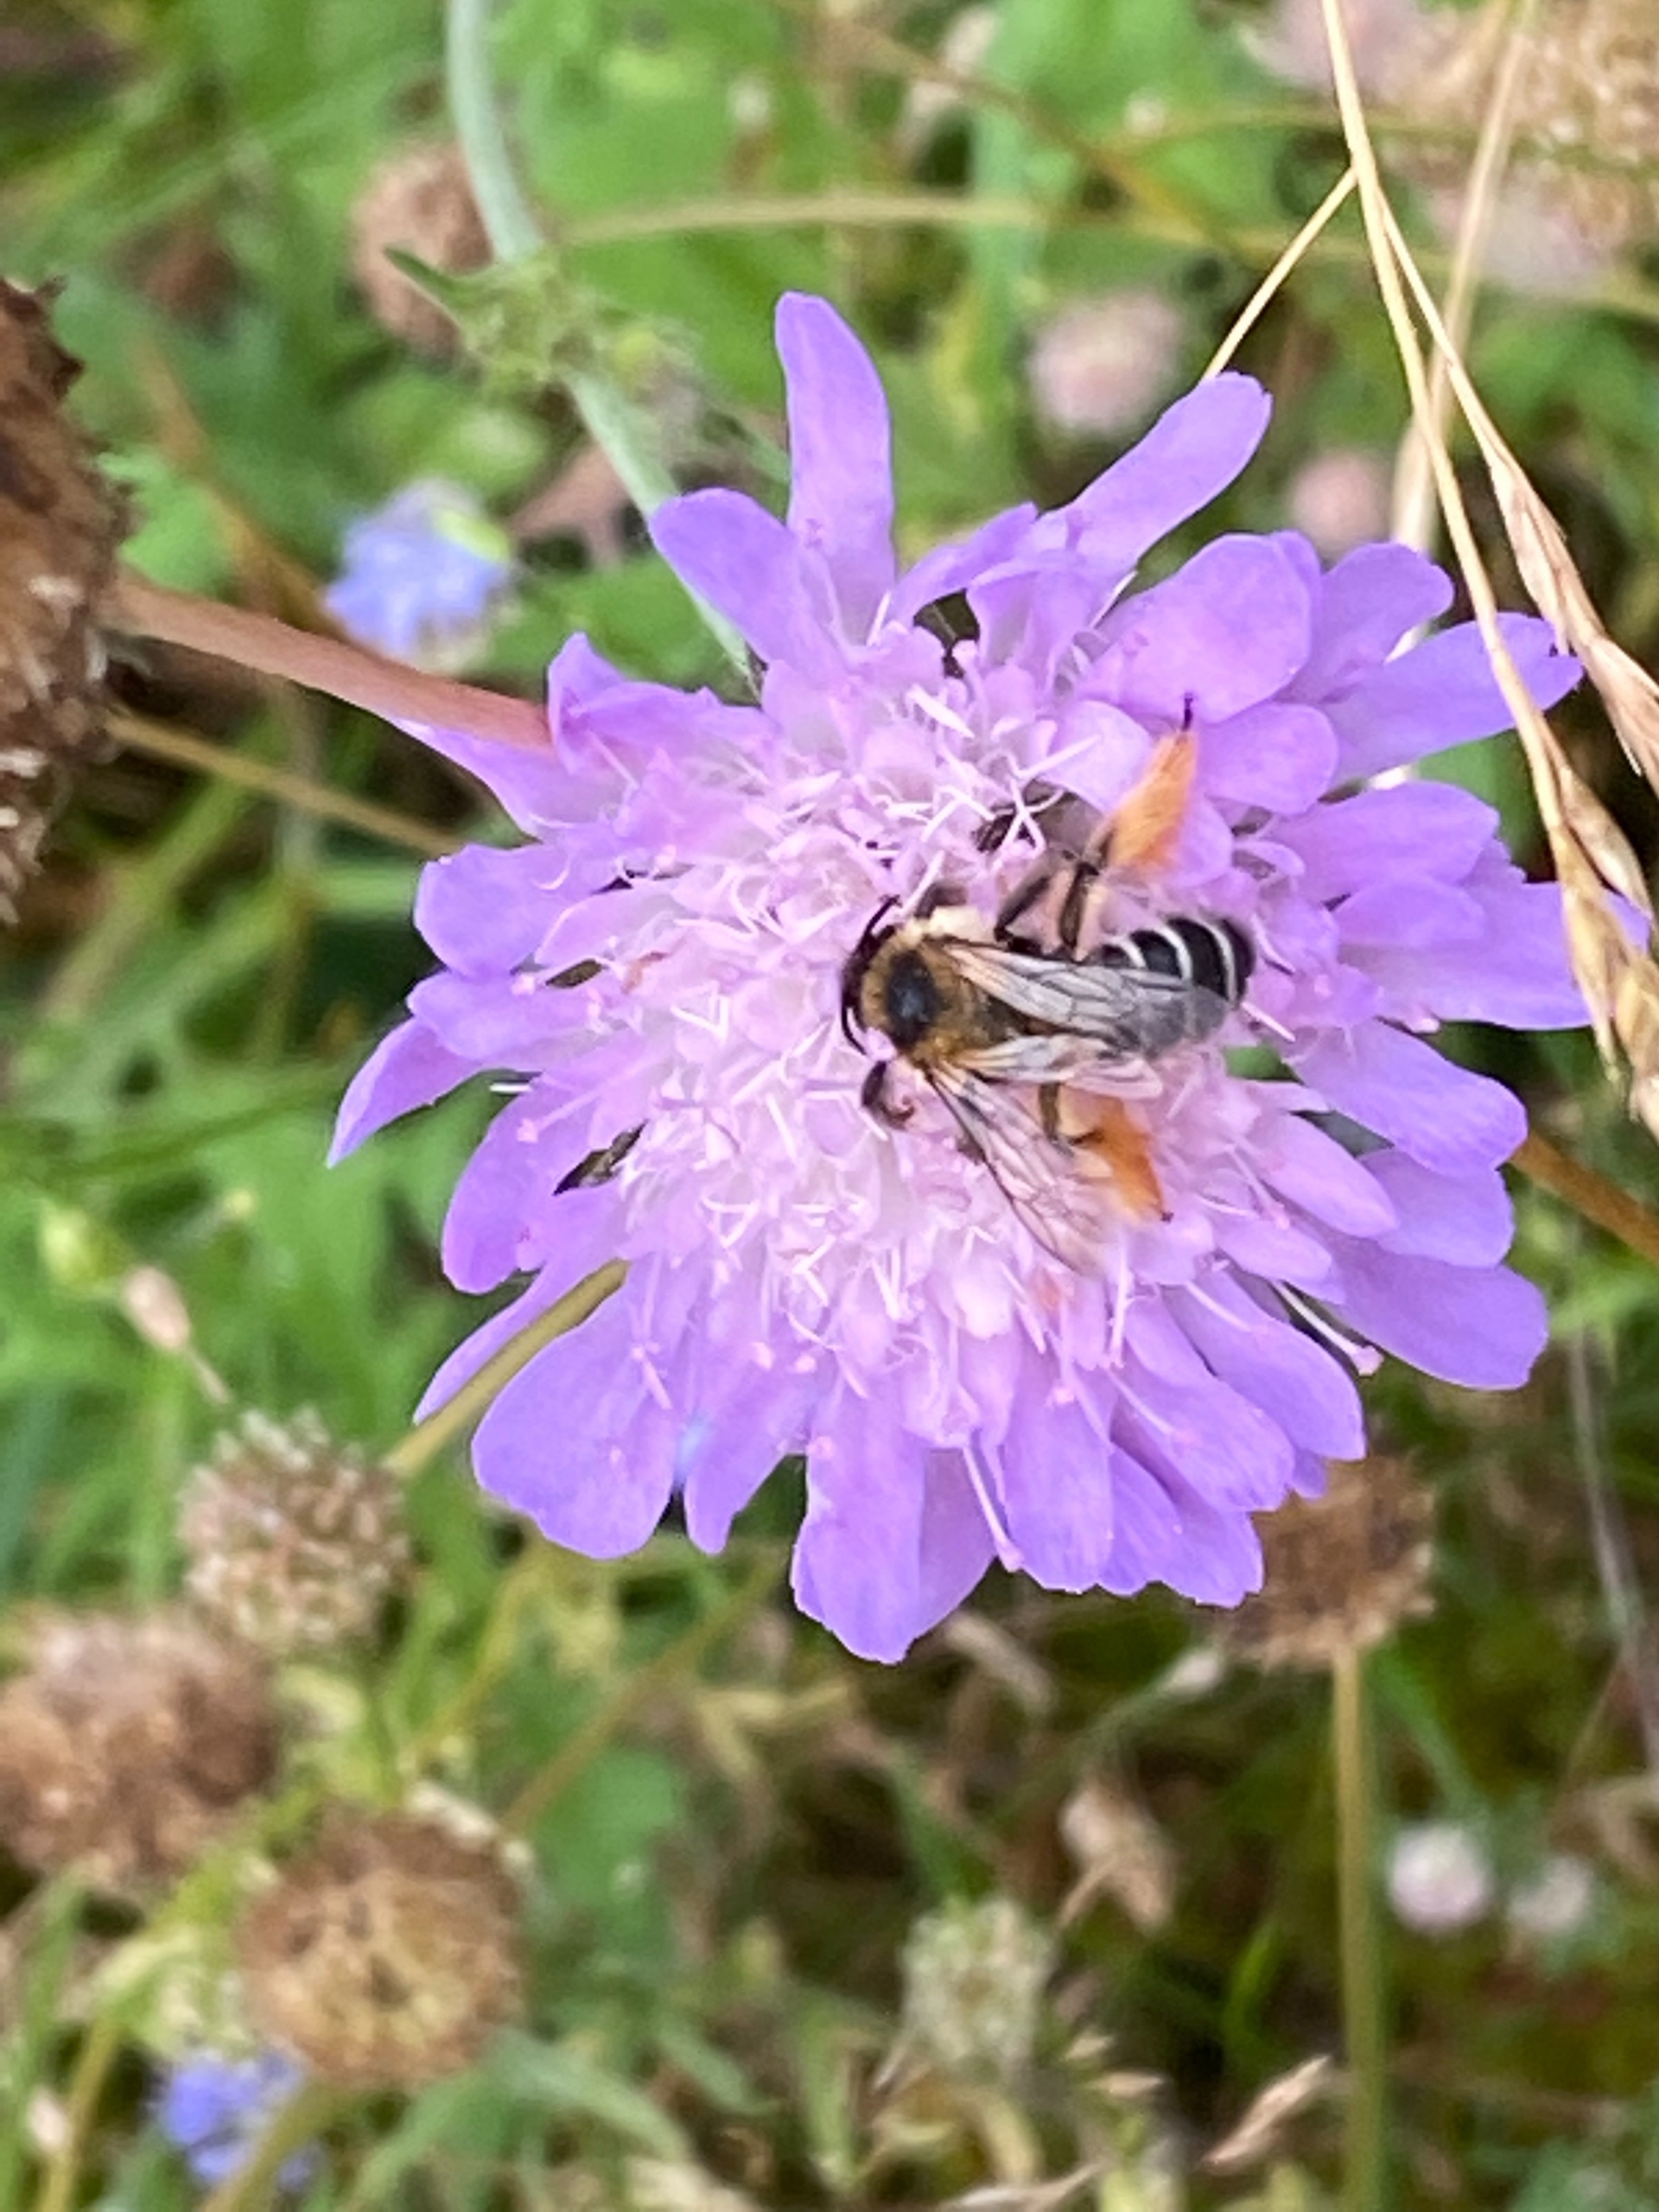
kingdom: Animalia
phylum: Arthropoda
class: Insecta
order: Hymenoptera
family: Melittidae
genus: Dasypoda
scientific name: Dasypoda hirtipes
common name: Pragtbuksebi
